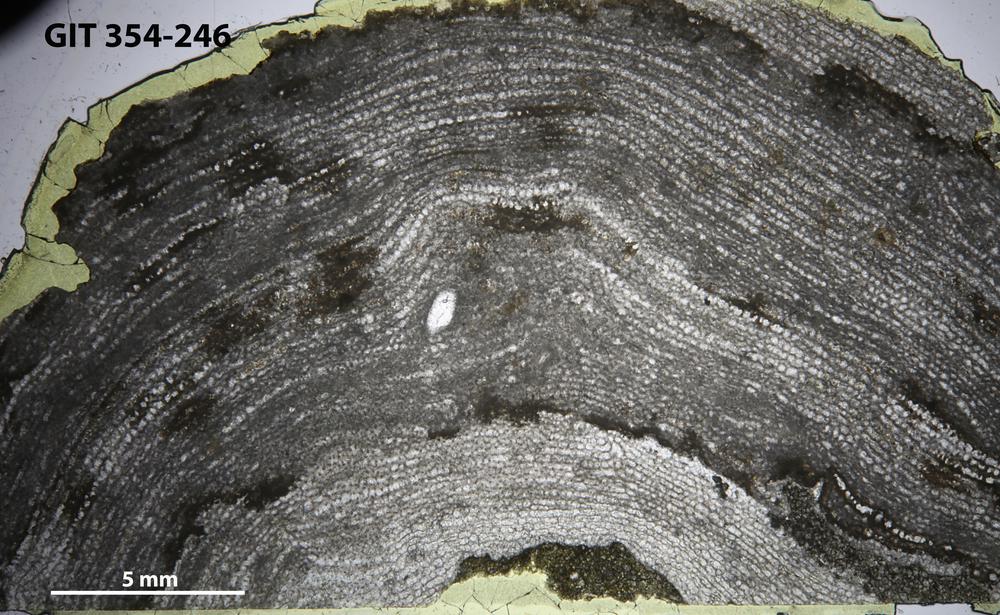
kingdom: Animalia
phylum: Porifera
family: Clathrodictyidae
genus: Clathrodictyon
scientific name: Clathrodictyon boreale
